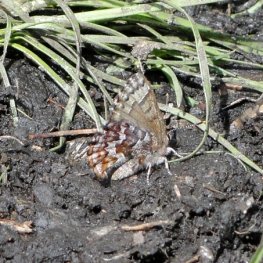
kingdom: Animalia
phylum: Arthropoda
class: Insecta
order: Lepidoptera
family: Lycaenidae
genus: Incisalia
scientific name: Incisalia niphon
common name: Eastern Pine Elfin
